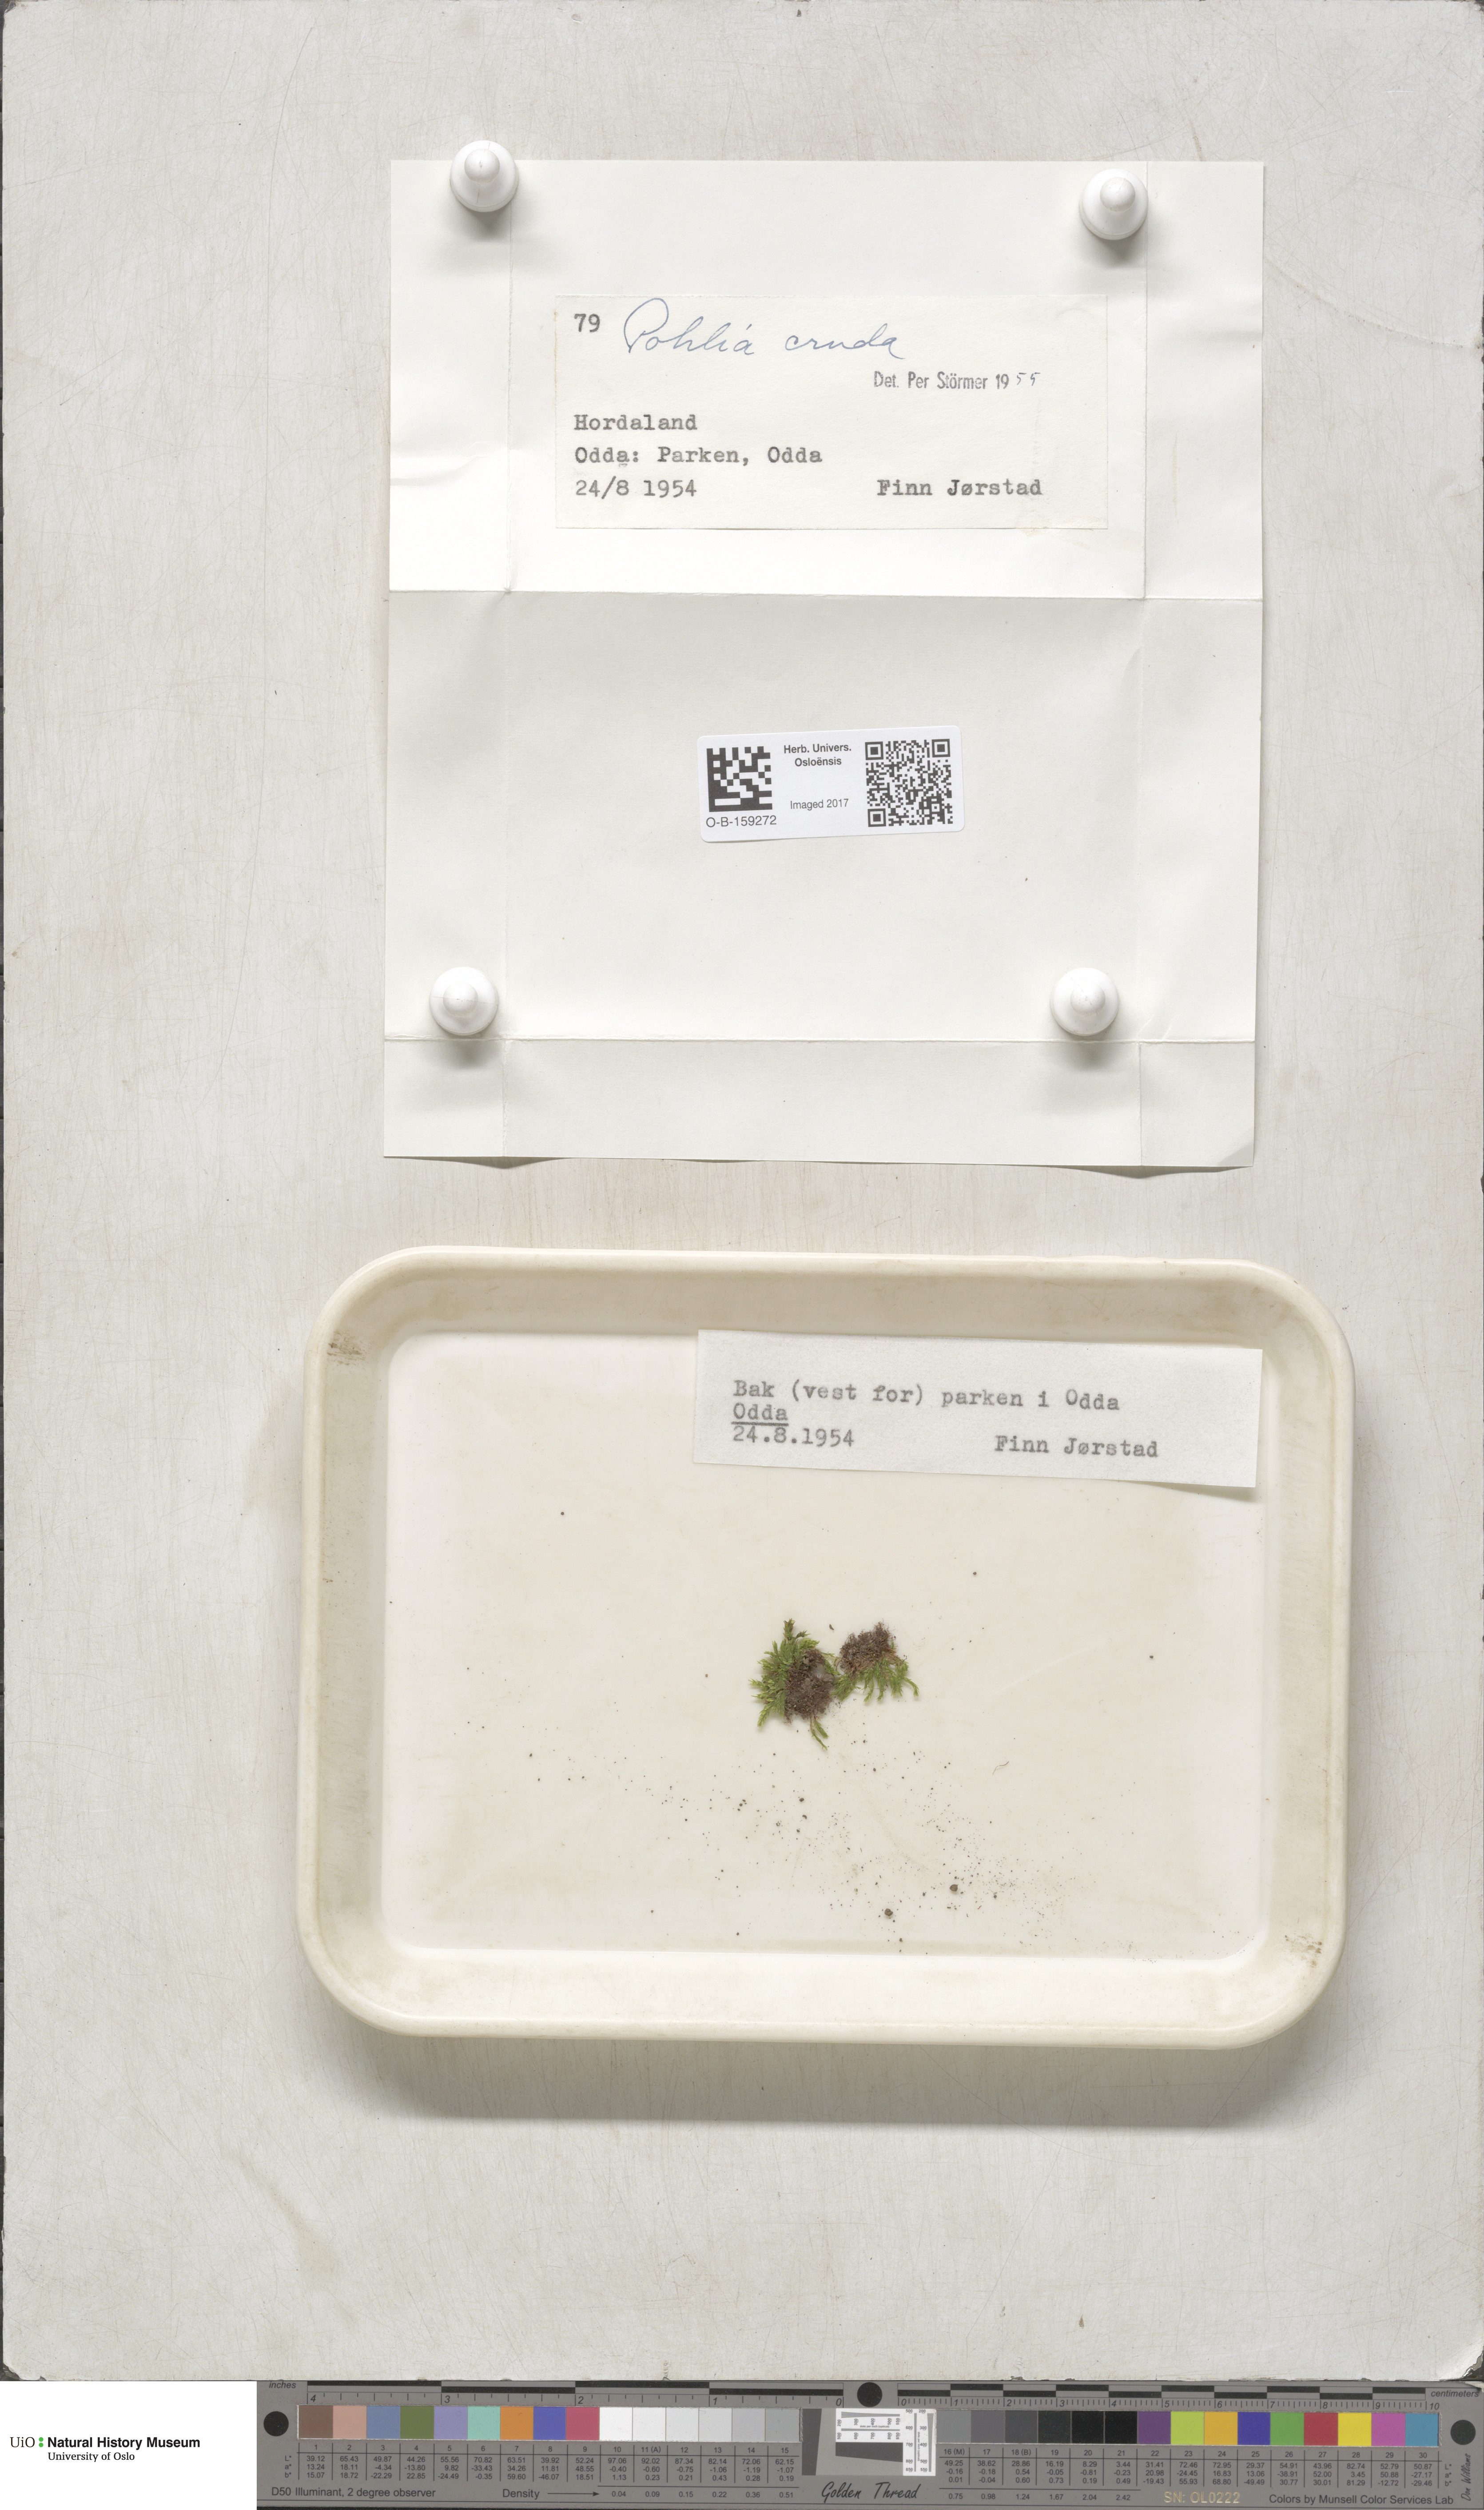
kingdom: Plantae
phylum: Bryophyta
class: Bryopsida
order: Bryales
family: Mniaceae
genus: Pohlia
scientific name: Pohlia cruda
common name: Opal nodding moss
